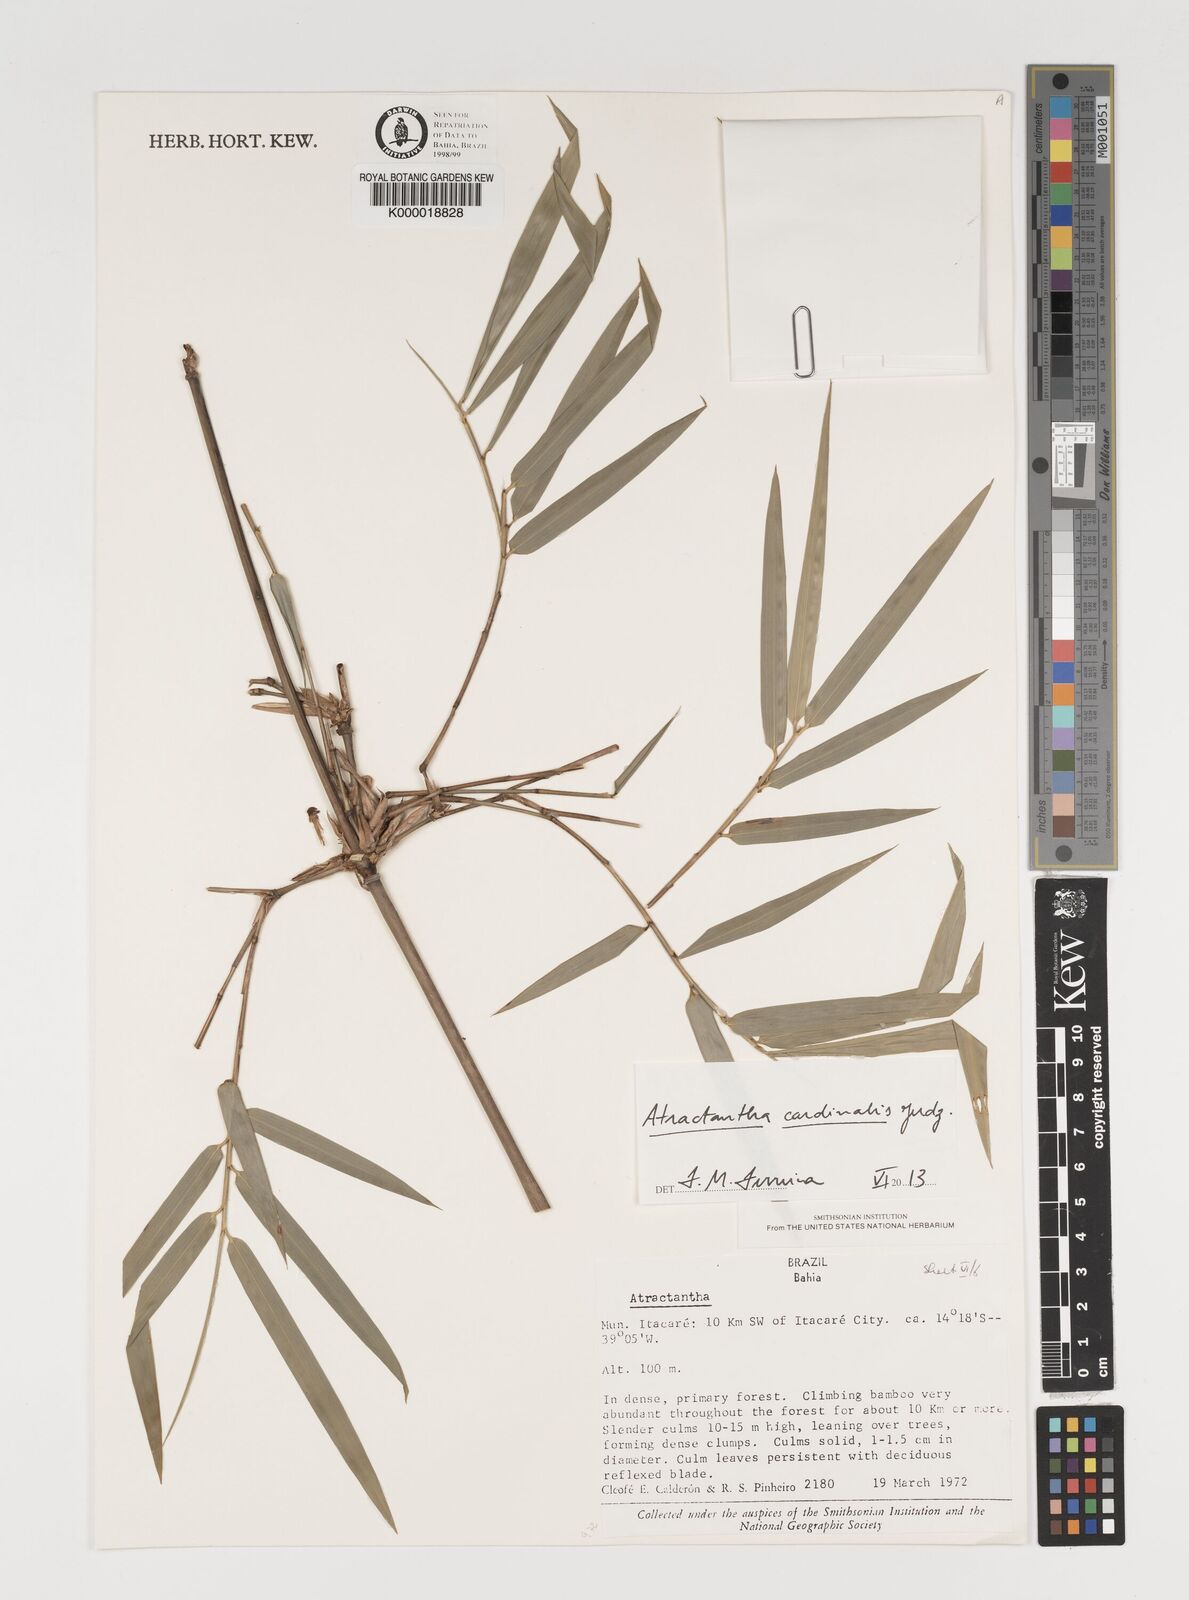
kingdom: Plantae
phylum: Tracheophyta
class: Liliopsida
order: Poales
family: Poaceae
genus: Atractantha
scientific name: Atractantha aureolanata
